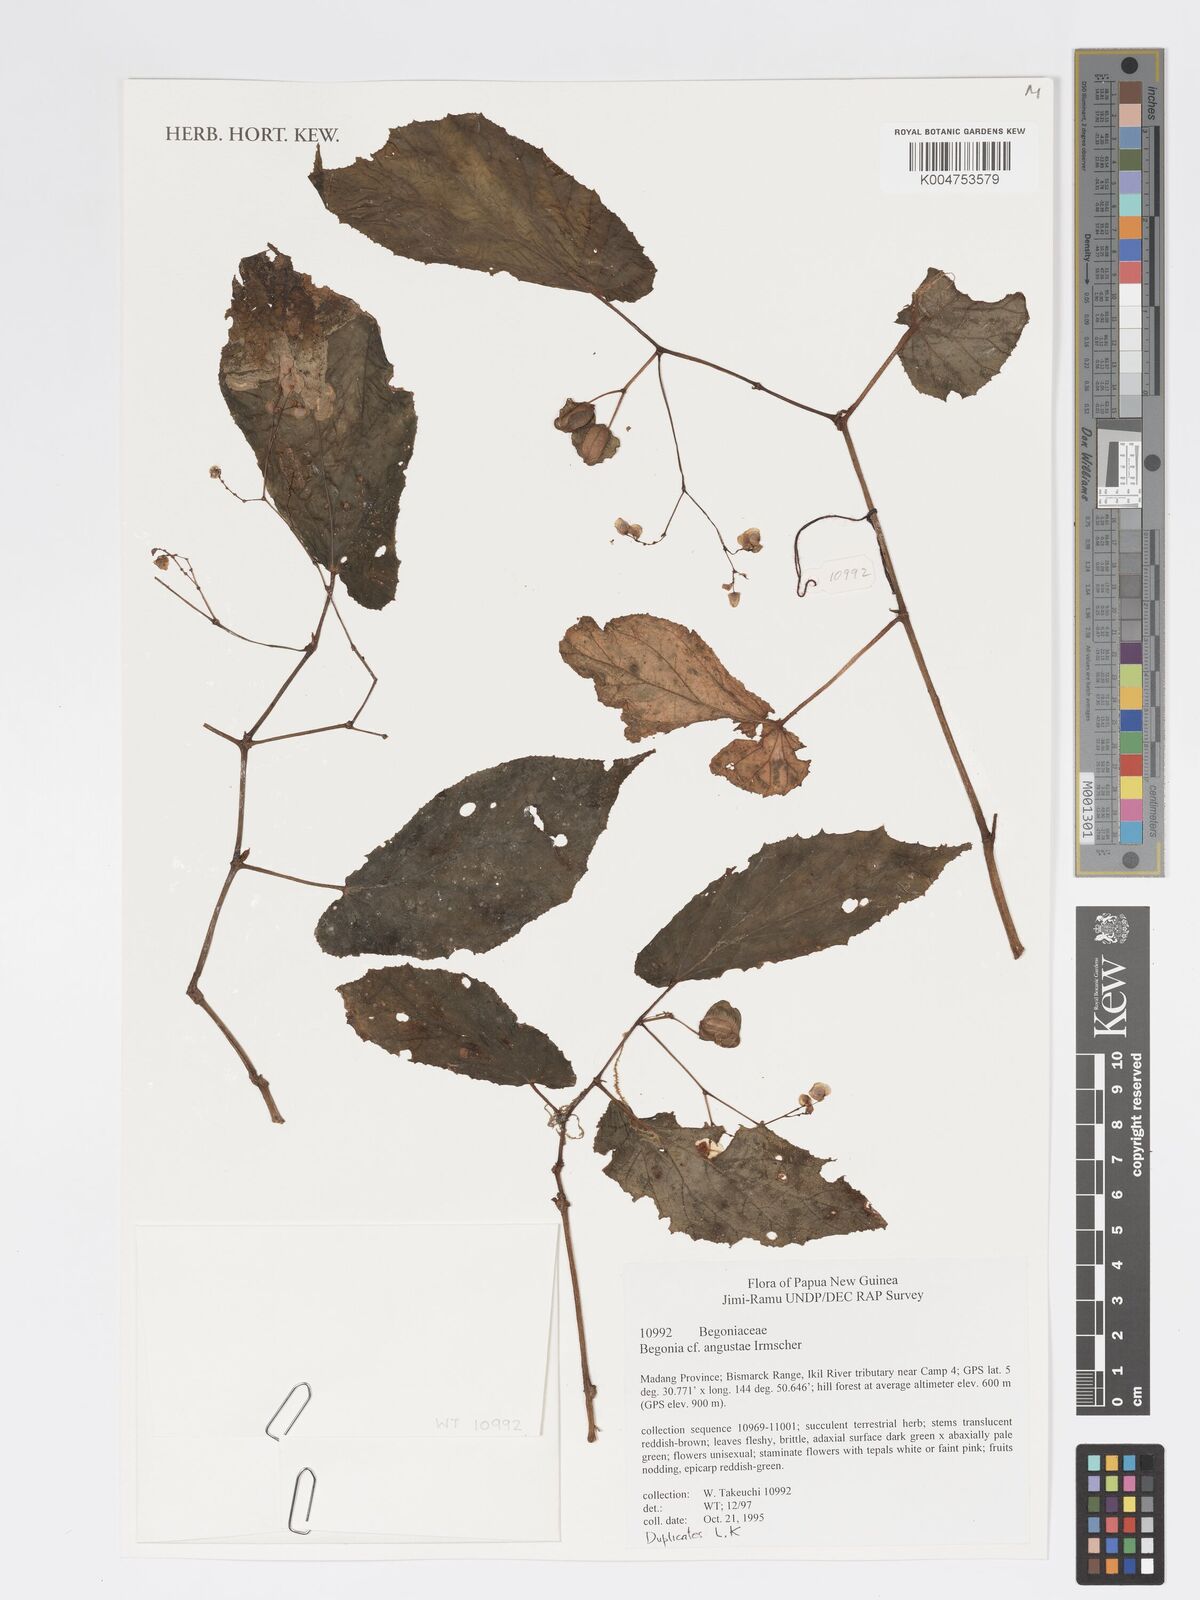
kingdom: Plantae
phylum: Tracheophyta
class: Magnoliopsida
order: Cucurbitales
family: Begoniaceae
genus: Begonia
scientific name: Begonia augustae
